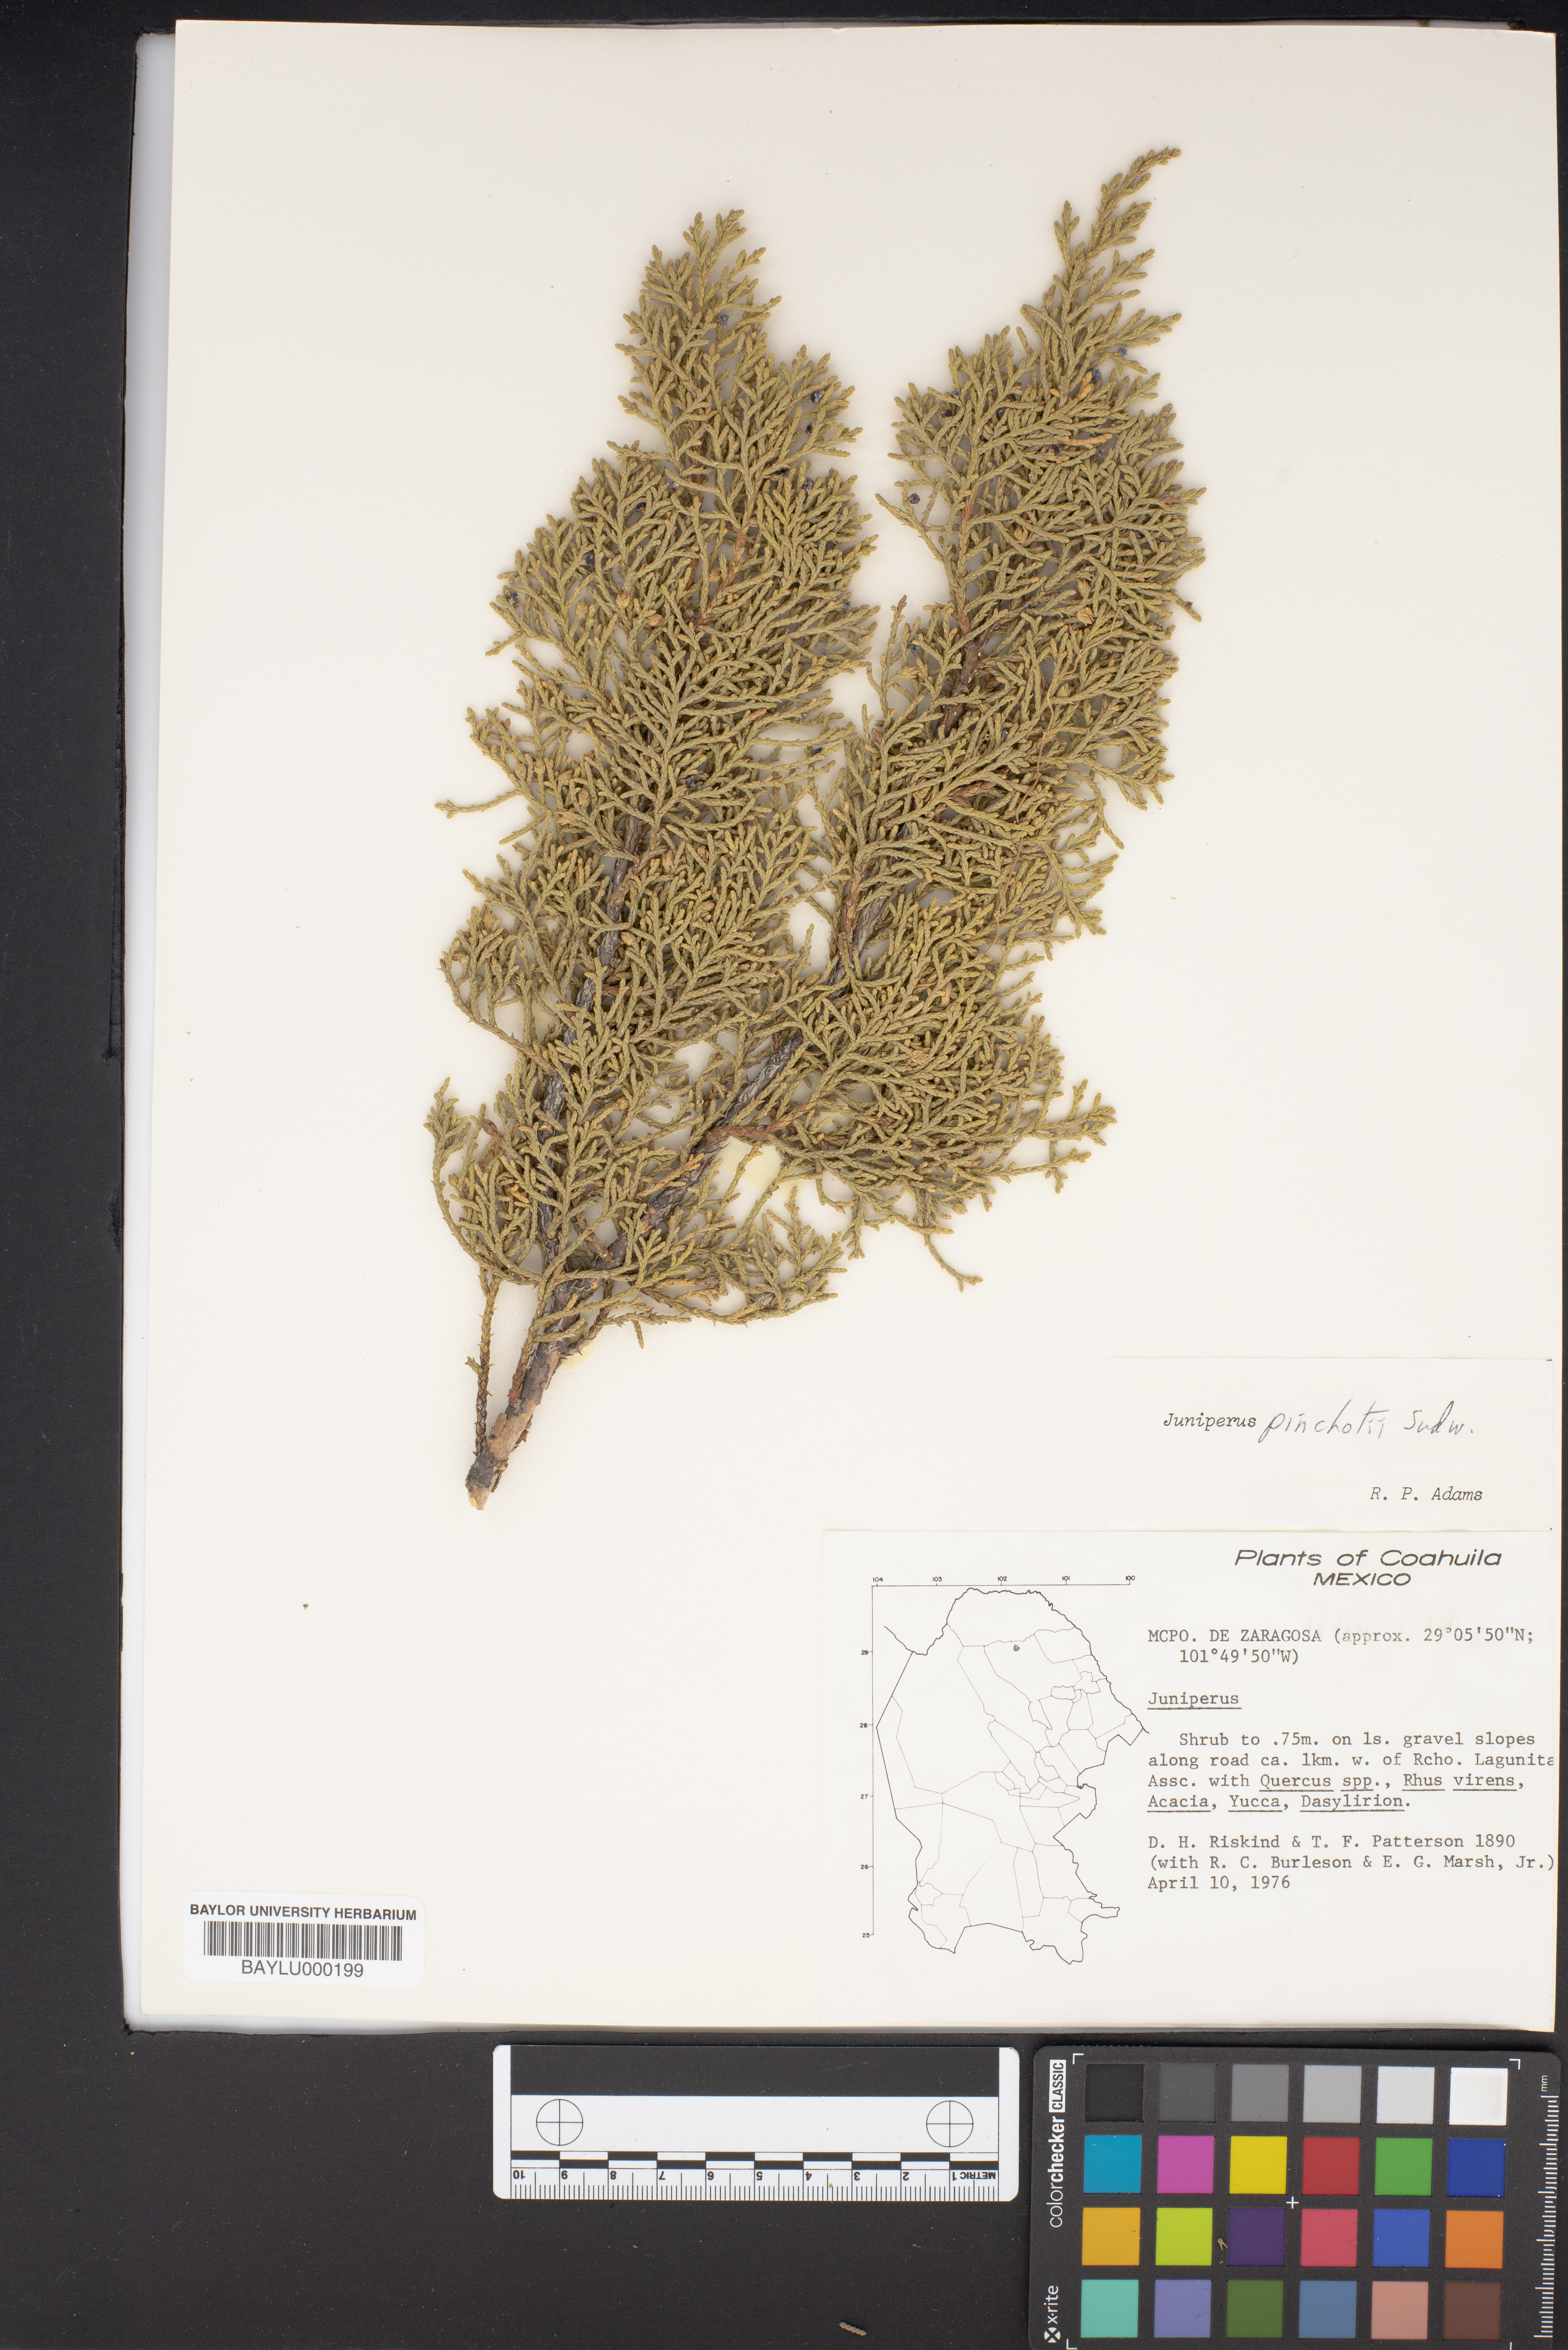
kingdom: Plantae
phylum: Tracheophyta
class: Pinopsida
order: Pinales
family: Cupressaceae
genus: Juniperus
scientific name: Juniperus
